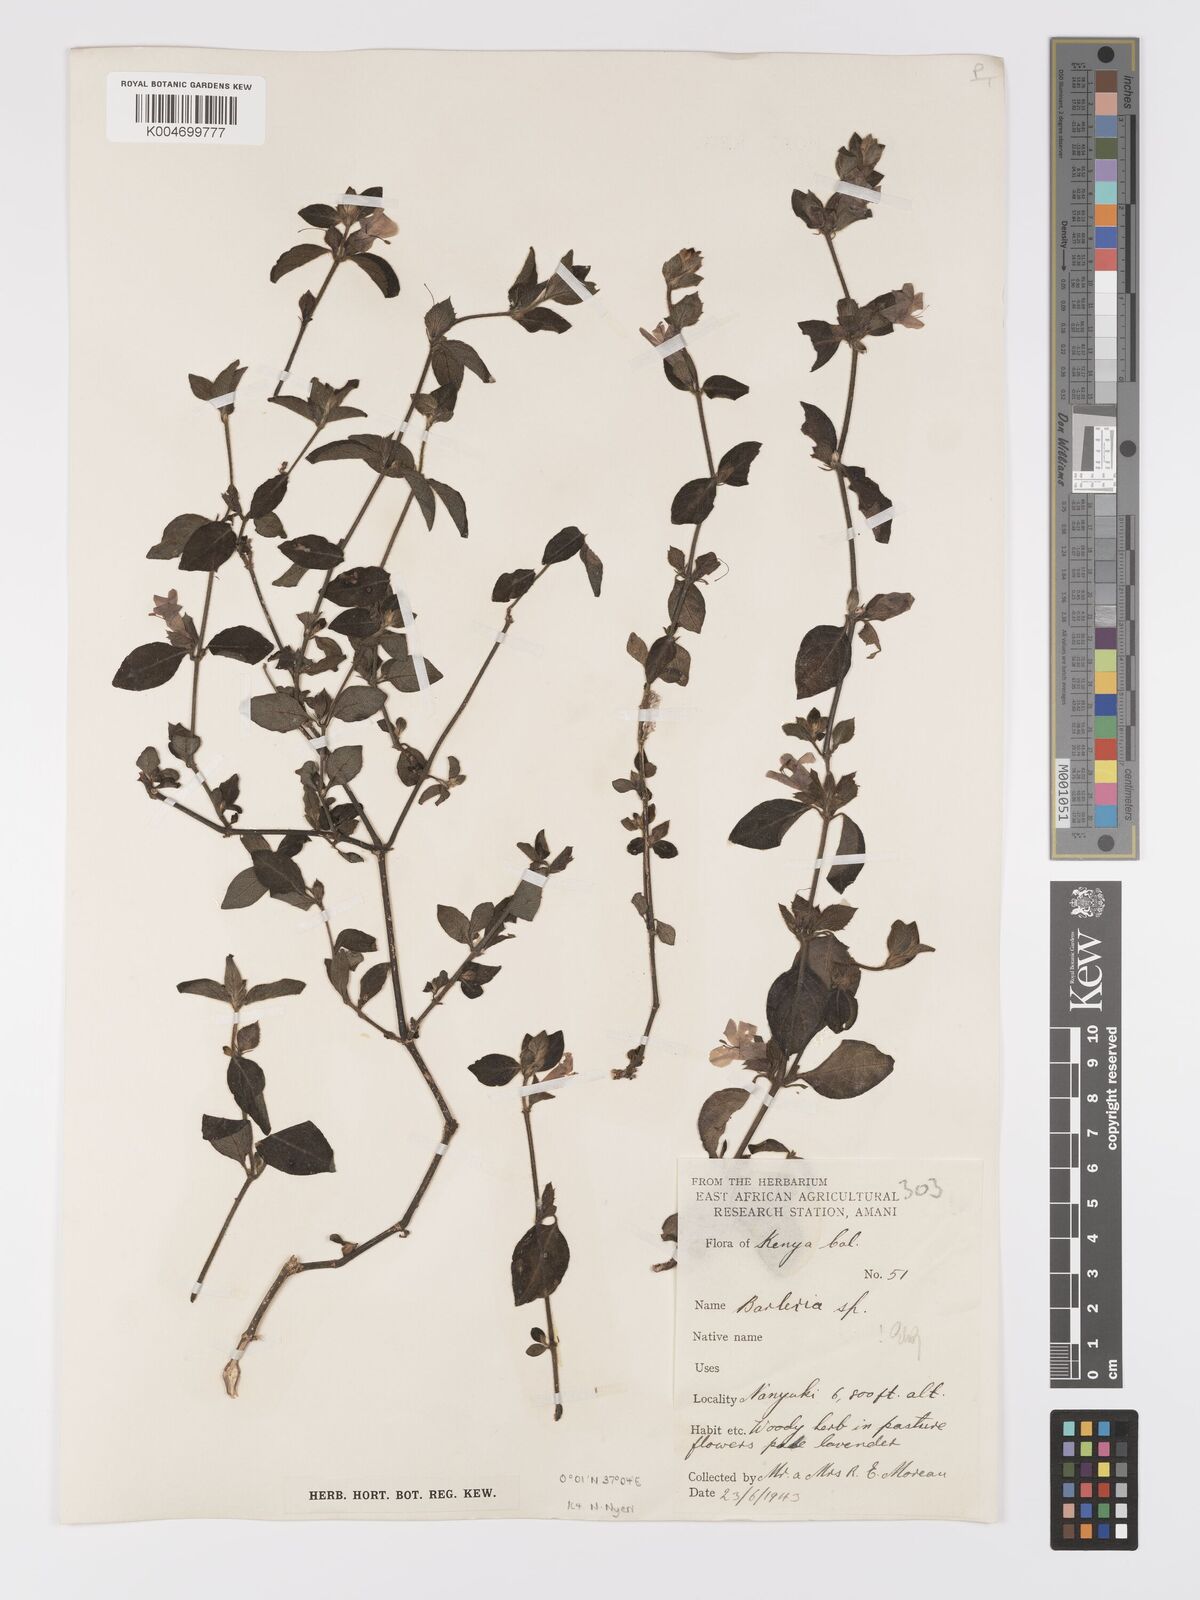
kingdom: Plantae
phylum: Tracheophyta
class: Magnoliopsida
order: Lamiales
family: Acanthaceae
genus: Barleria
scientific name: Barleria ventricosa
